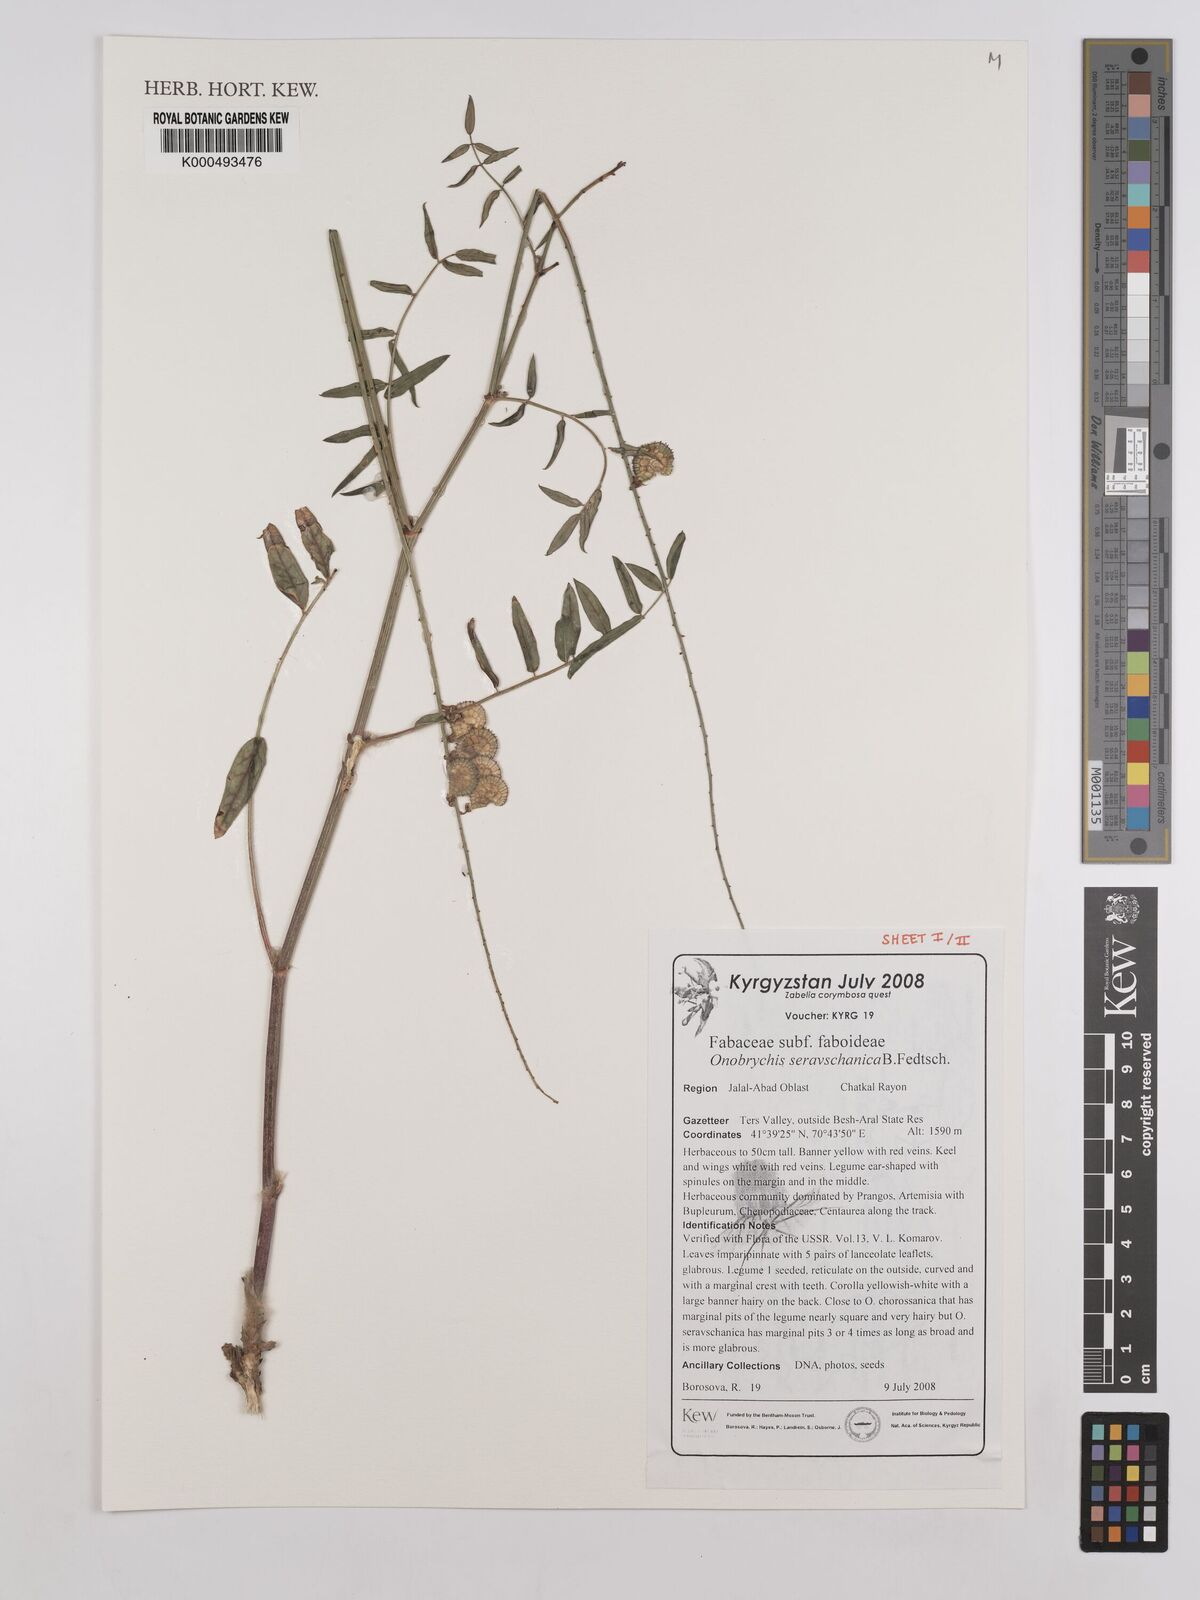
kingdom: Plantae
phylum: Tracheophyta
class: Magnoliopsida
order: Fabales
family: Fabaceae
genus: Onobrychis
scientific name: Onobrychis saravschanica
